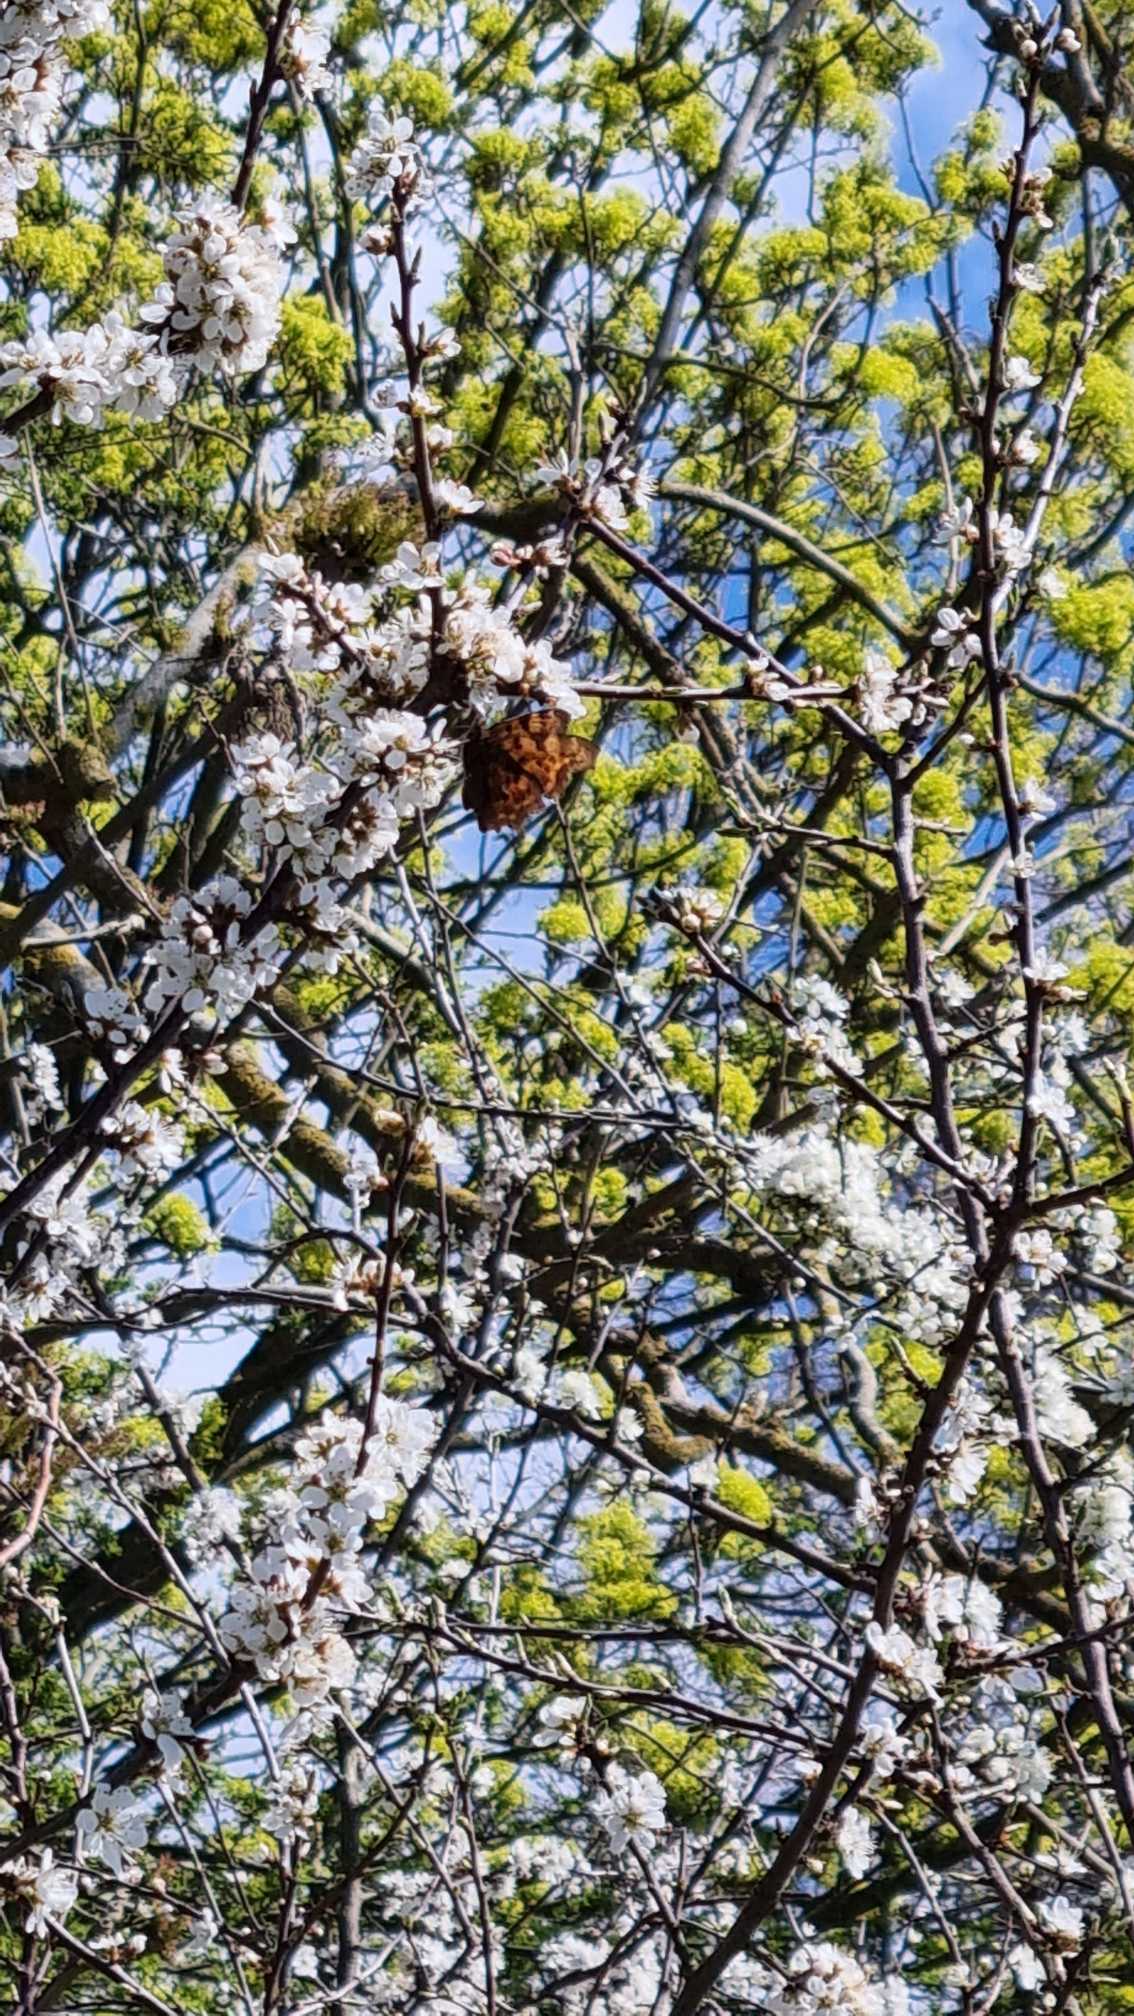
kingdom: Animalia
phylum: Arthropoda
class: Insecta
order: Lepidoptera
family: Nymphalidae
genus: Polygonia
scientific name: Polygonia c-album
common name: Det hvide C
